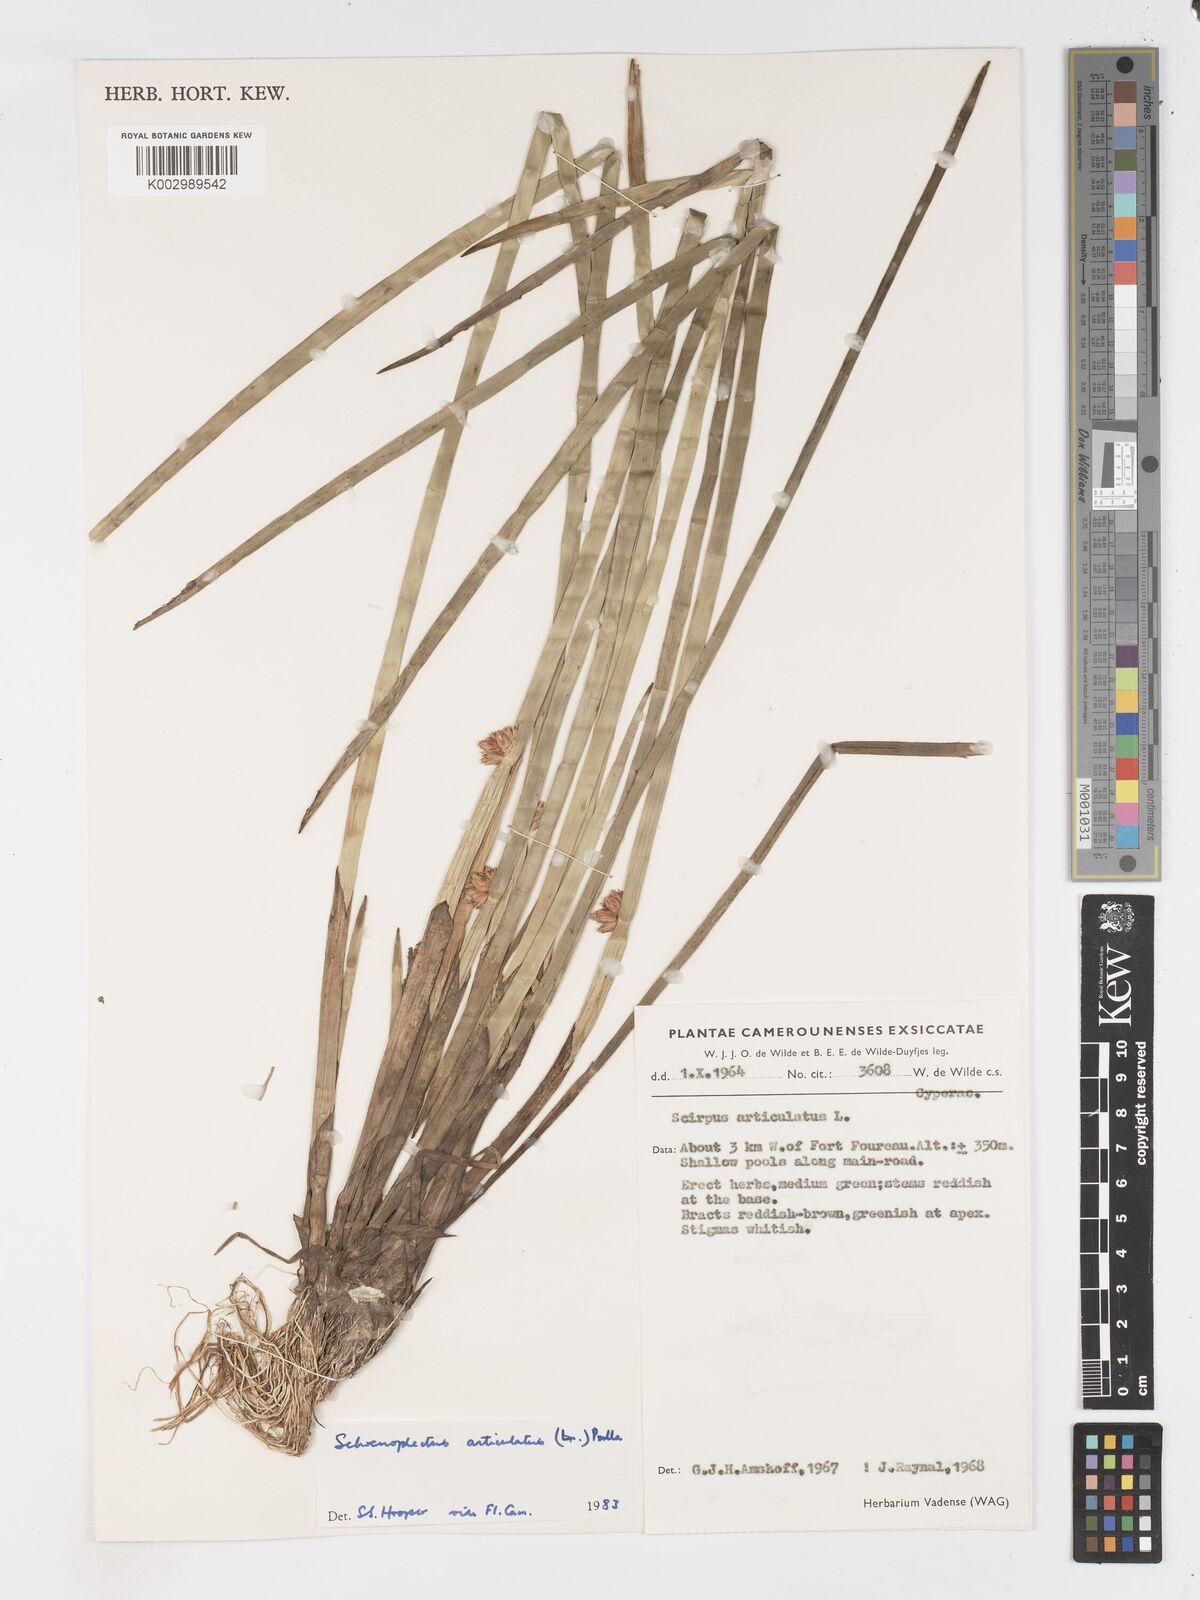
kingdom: Plantae
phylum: Tracheophyta
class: Liliopsida
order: Poales
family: Cyperaceae
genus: Schoenoplectiella
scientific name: Schoenoplectiella articulata
